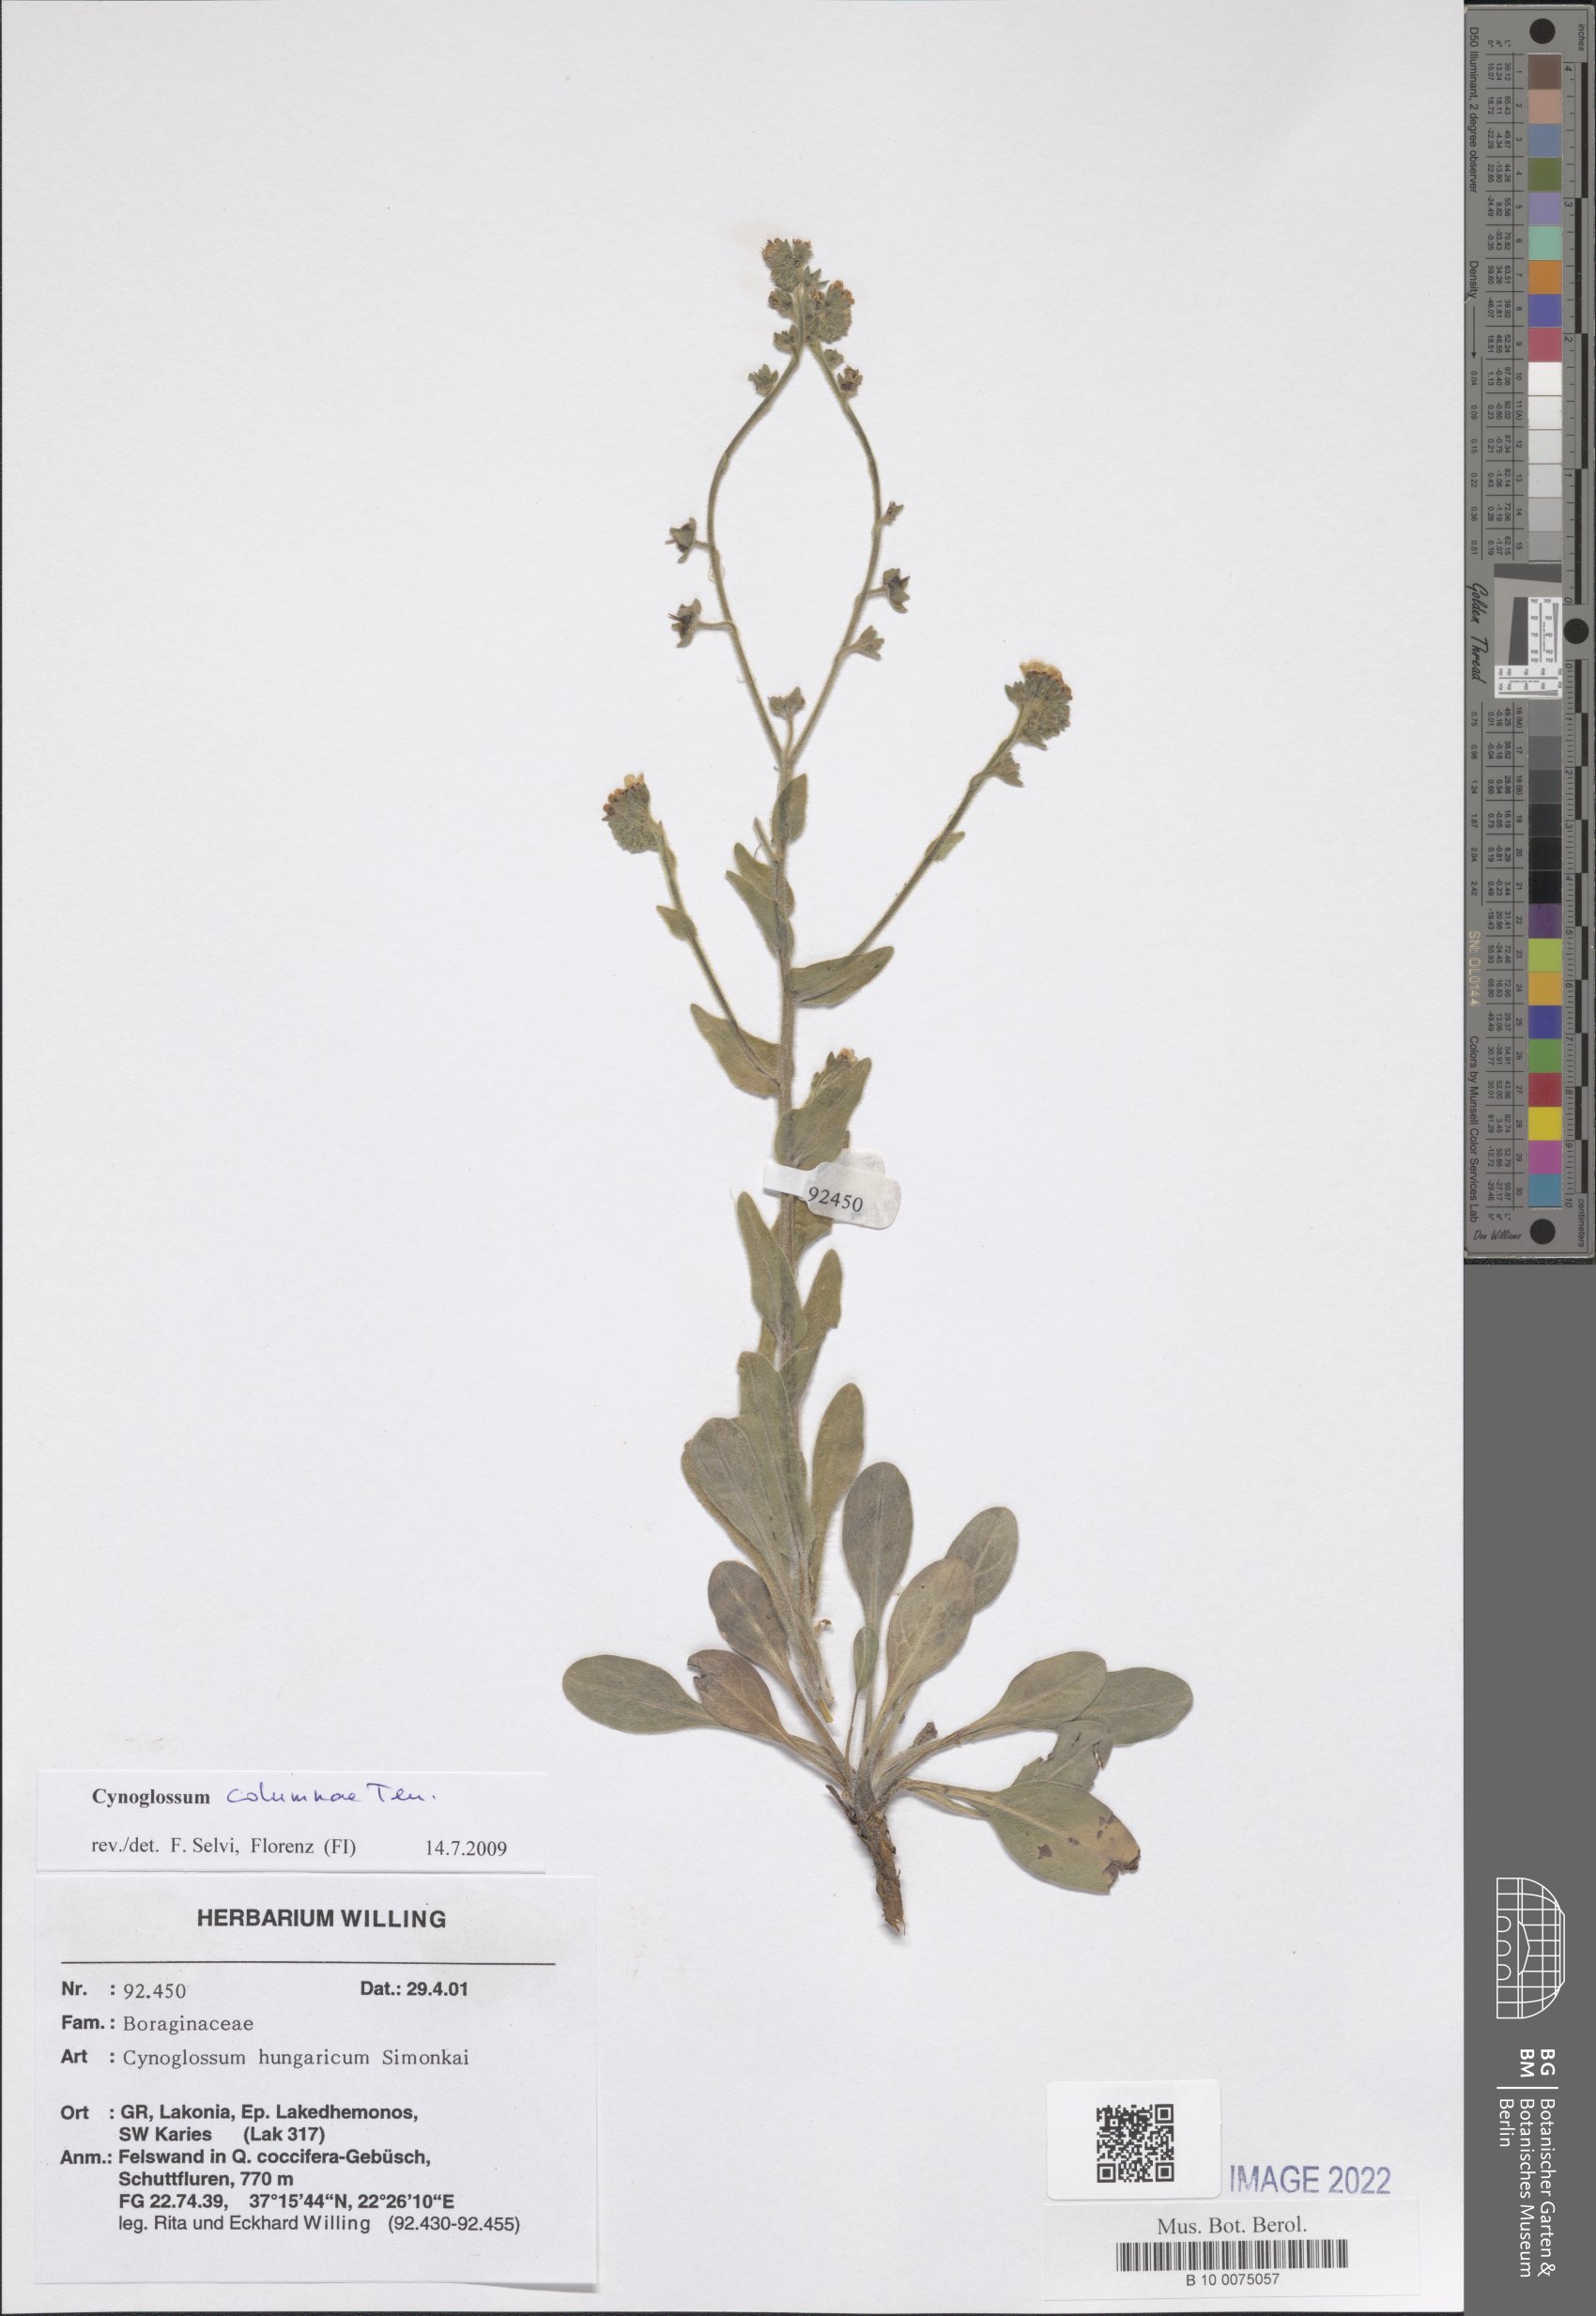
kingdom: Plantae
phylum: Tracheophyta
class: Magnoliopsida
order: Boraginales
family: Boraginaceae
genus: Rindera
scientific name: Rindera columnae
